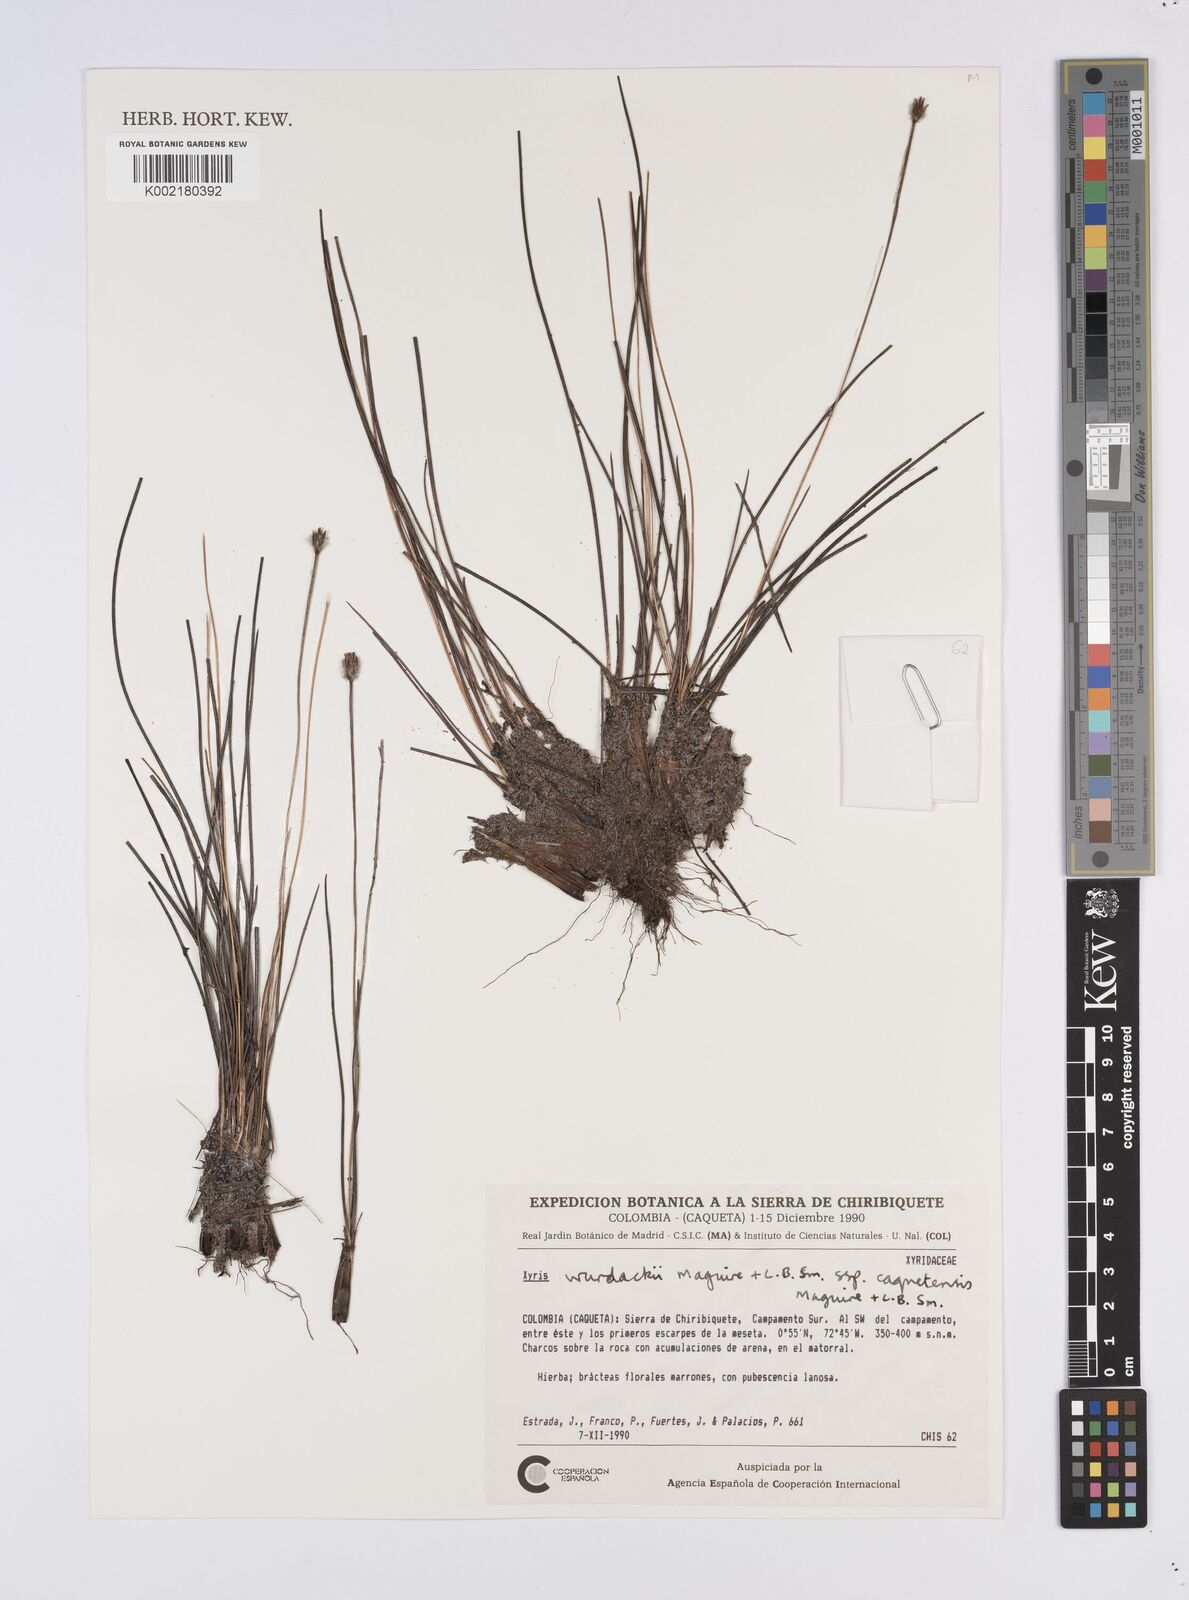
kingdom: Plantae
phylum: Tracheophyta
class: Liliopsida
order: Poales
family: Xyridaceae
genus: Xyris
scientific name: Xyris wurdackii
